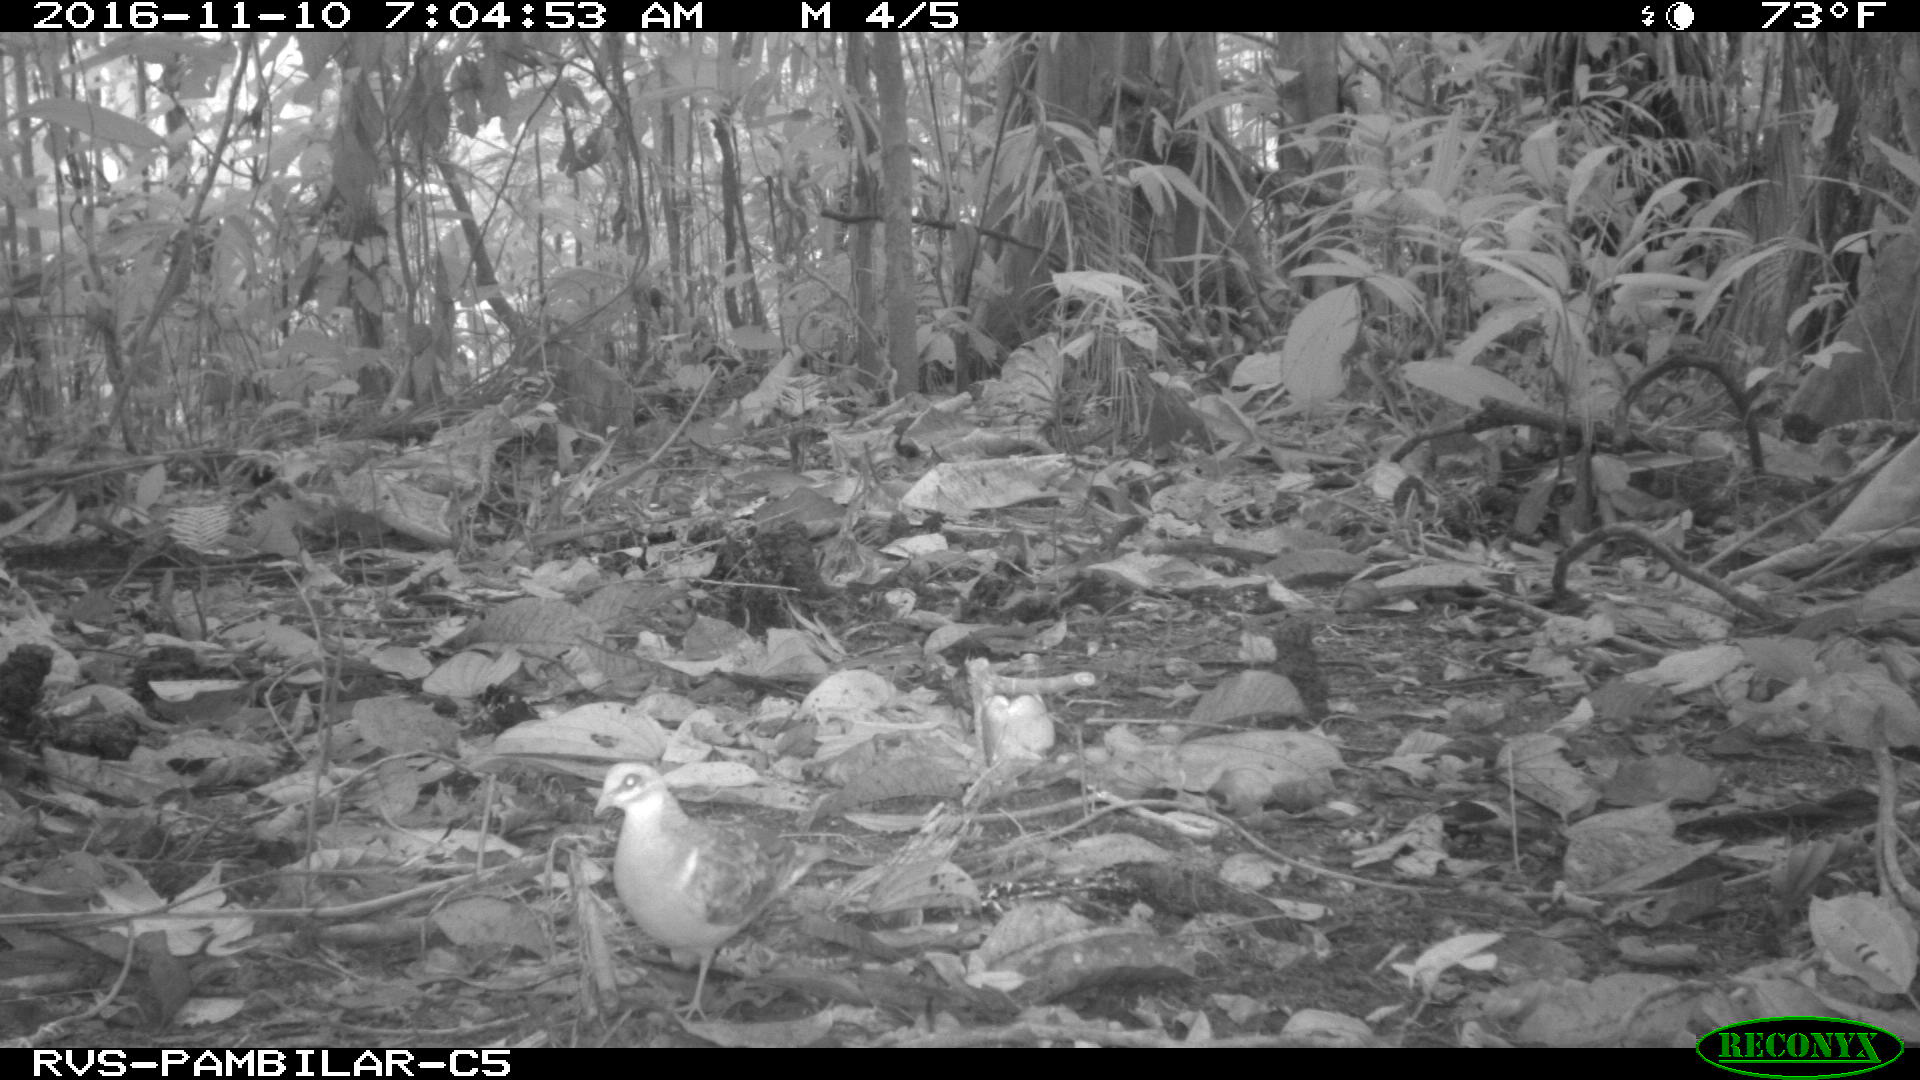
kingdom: Animalia
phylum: Chordata
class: Aves
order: Columbiformes
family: Columbidae
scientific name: Columbidae
